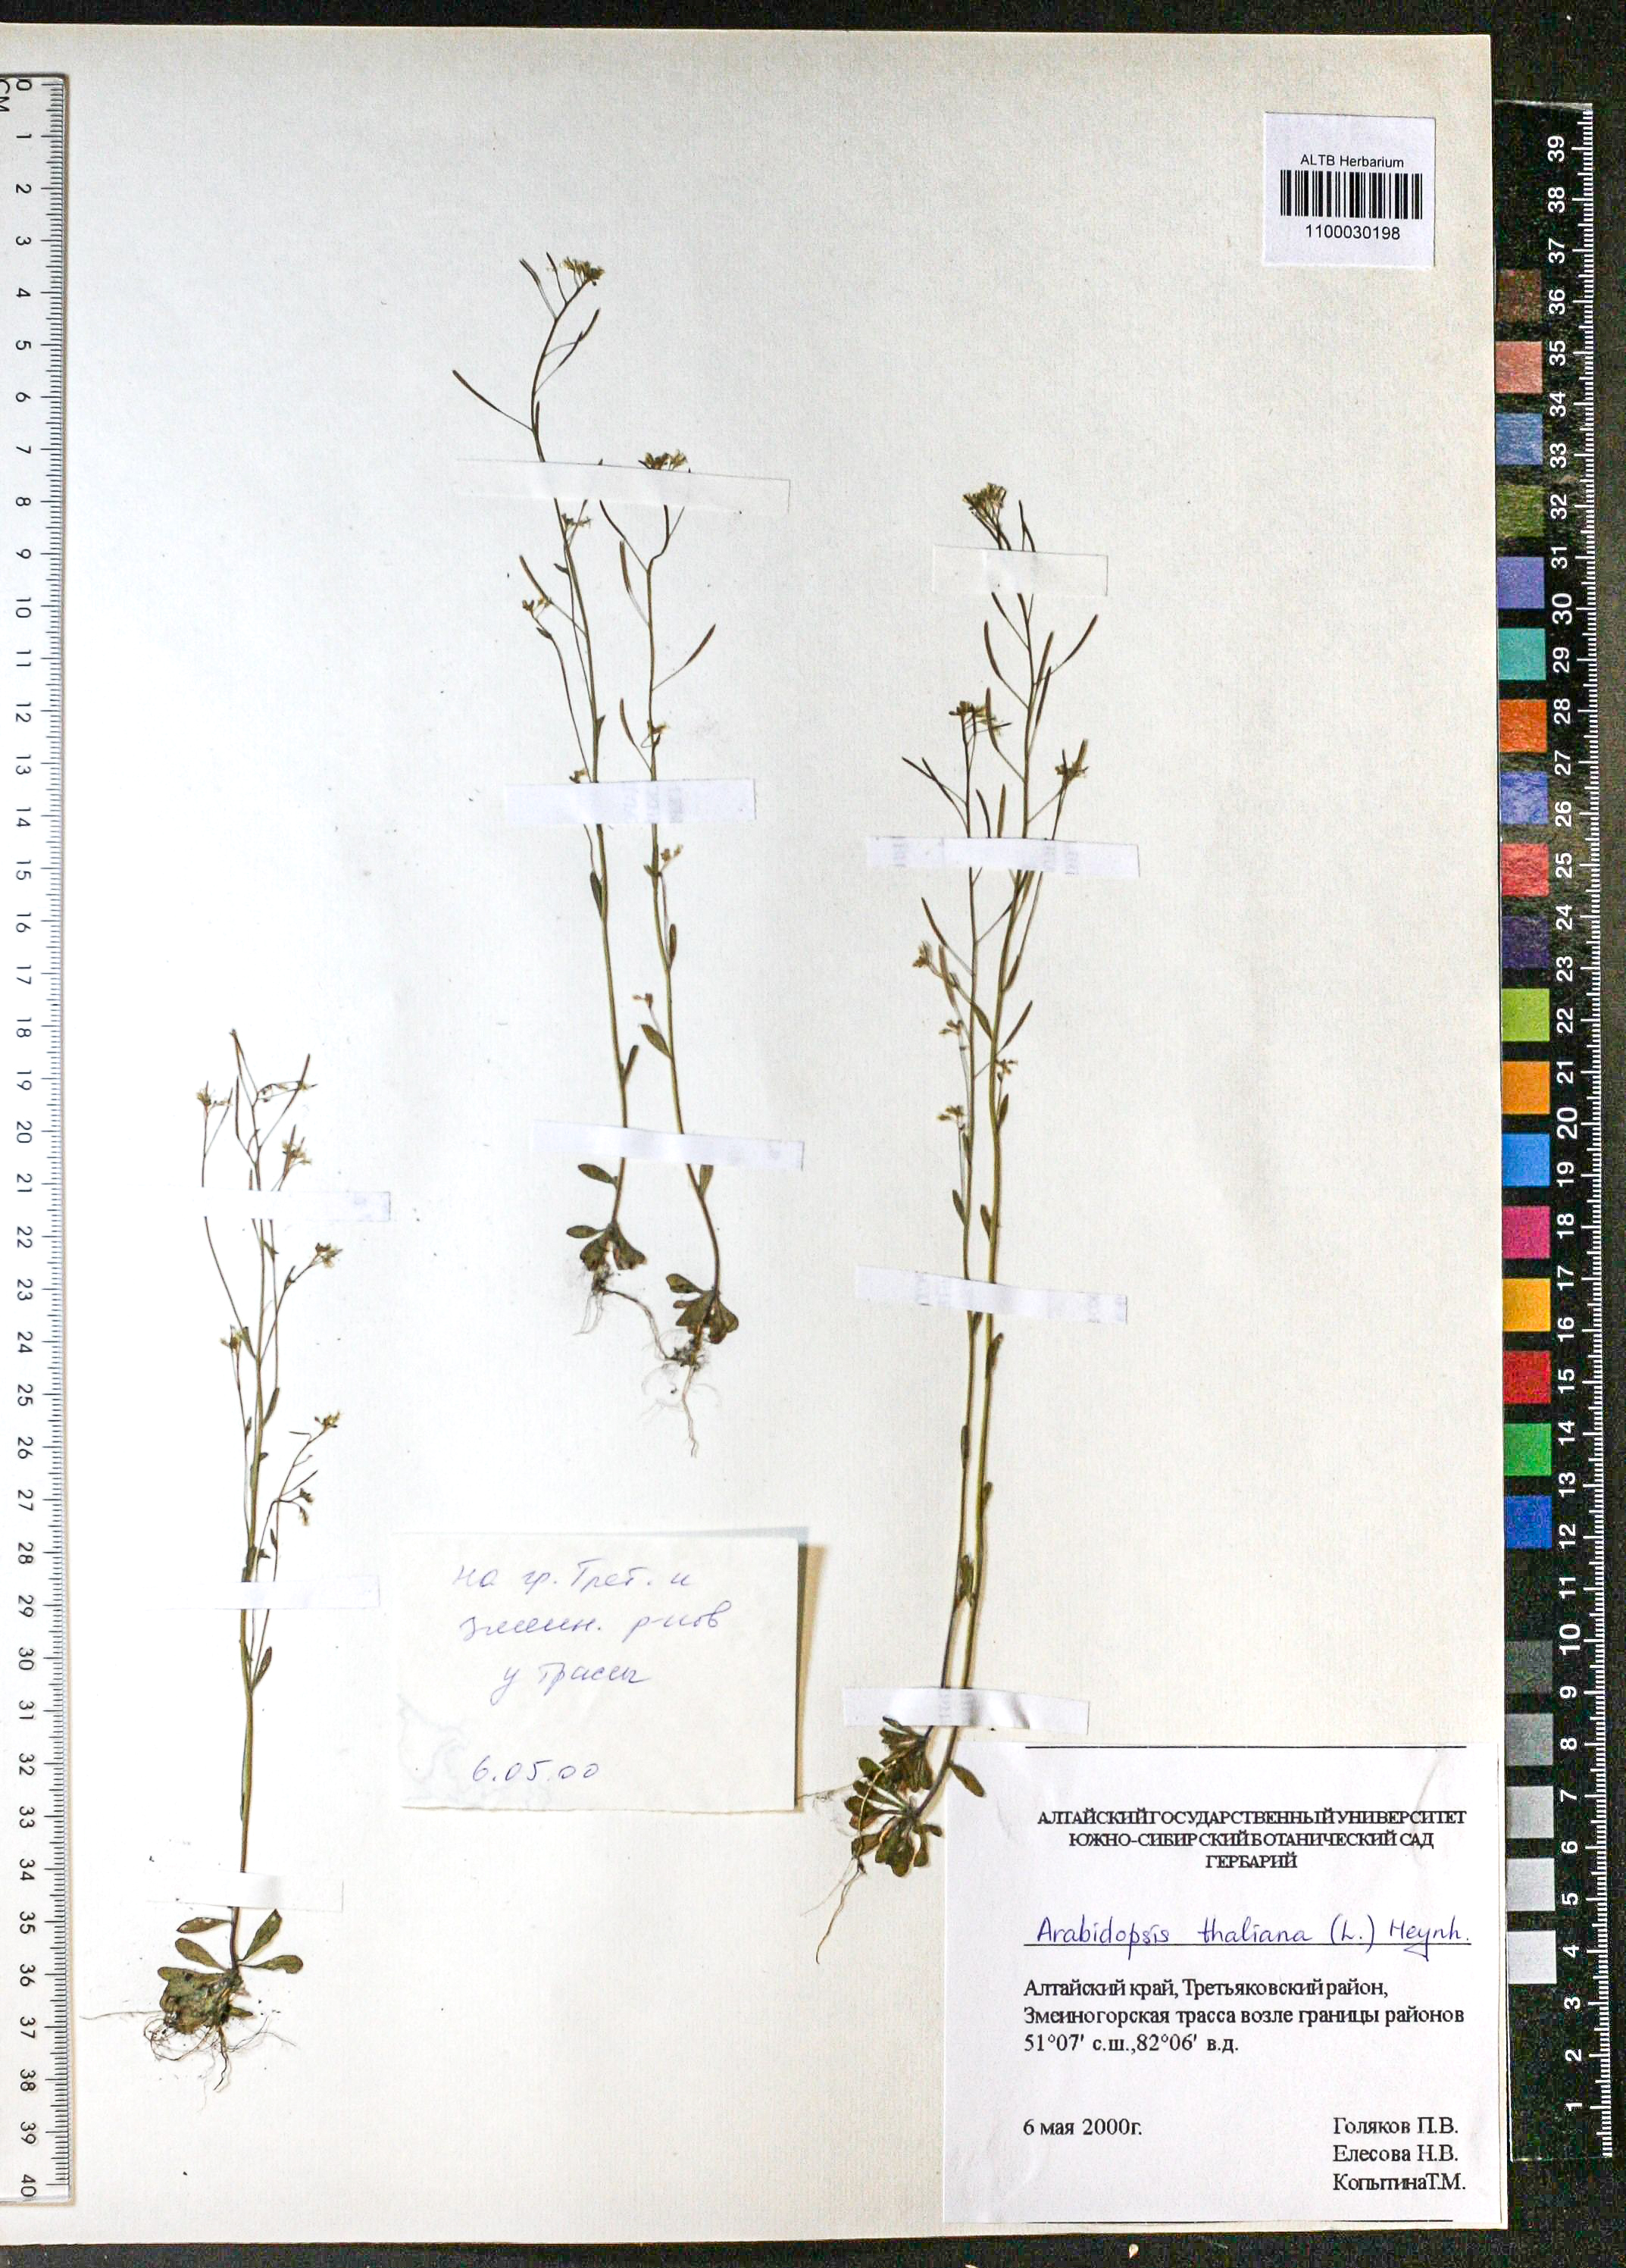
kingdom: Plantae
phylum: Tracheophyta
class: Magnoliopsida
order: Brassicales
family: Brassicaceae
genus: Arabidopsis
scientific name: Arabidopsis thaliana
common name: Thale cress
